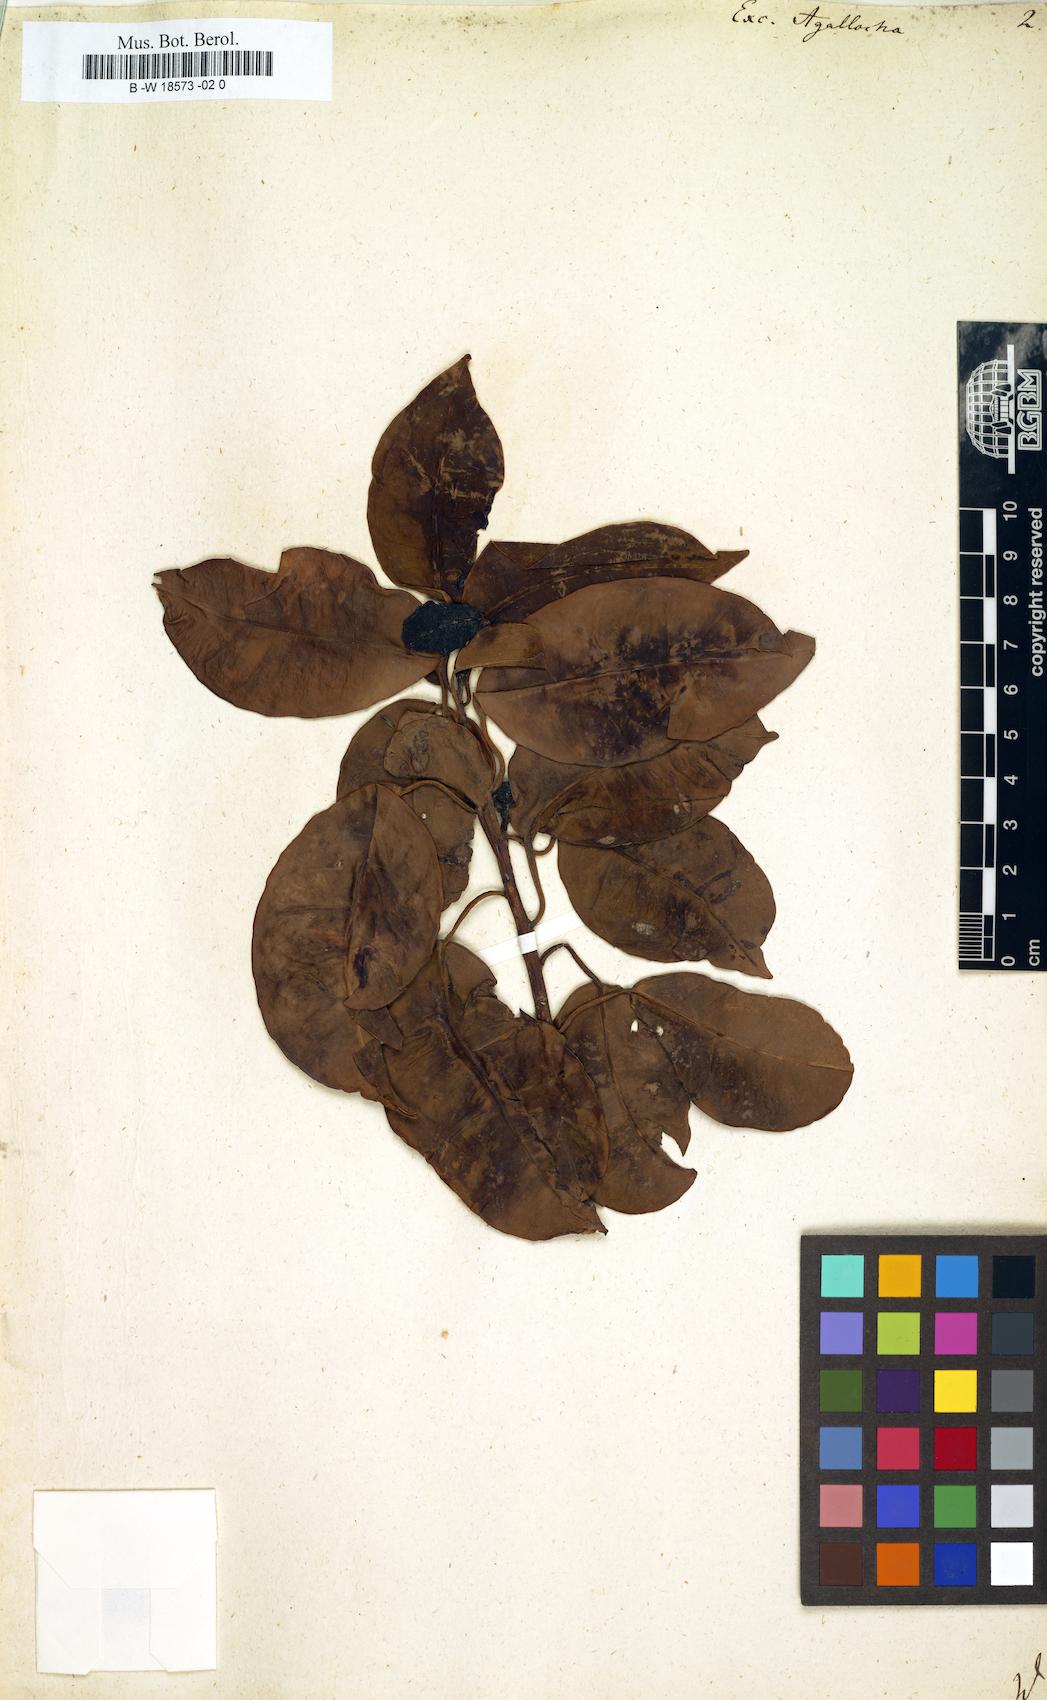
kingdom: Plantae
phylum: Tracheophyta
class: Magnoliopsida
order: Malpighiales
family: Euphorbiaceae
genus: Excoecaria
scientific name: Excoecaria agallocha
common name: River poisontree
